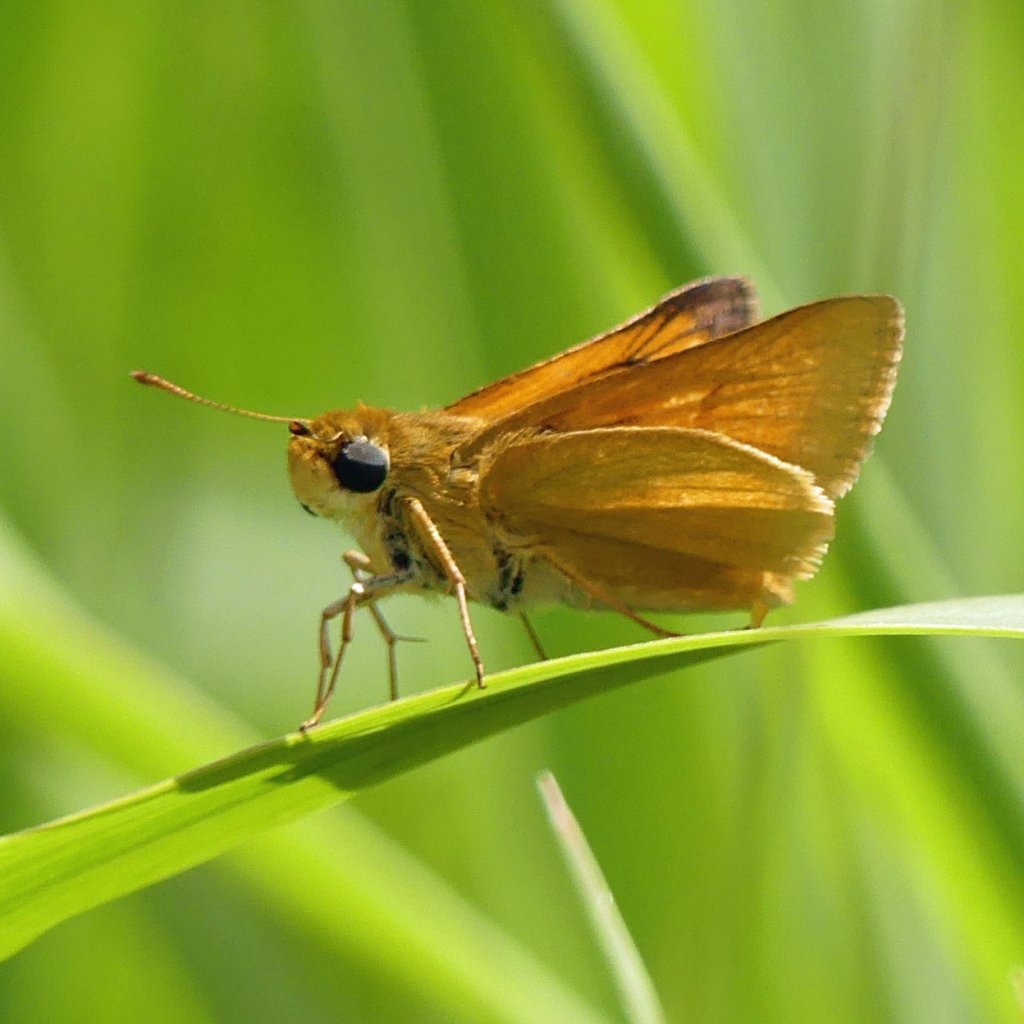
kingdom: Animalia
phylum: Arthropoda
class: Insecta
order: Lepidoptera
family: Hesperiidae
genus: Atrytone
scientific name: Atrytone delaware
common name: Delaware Skipper
